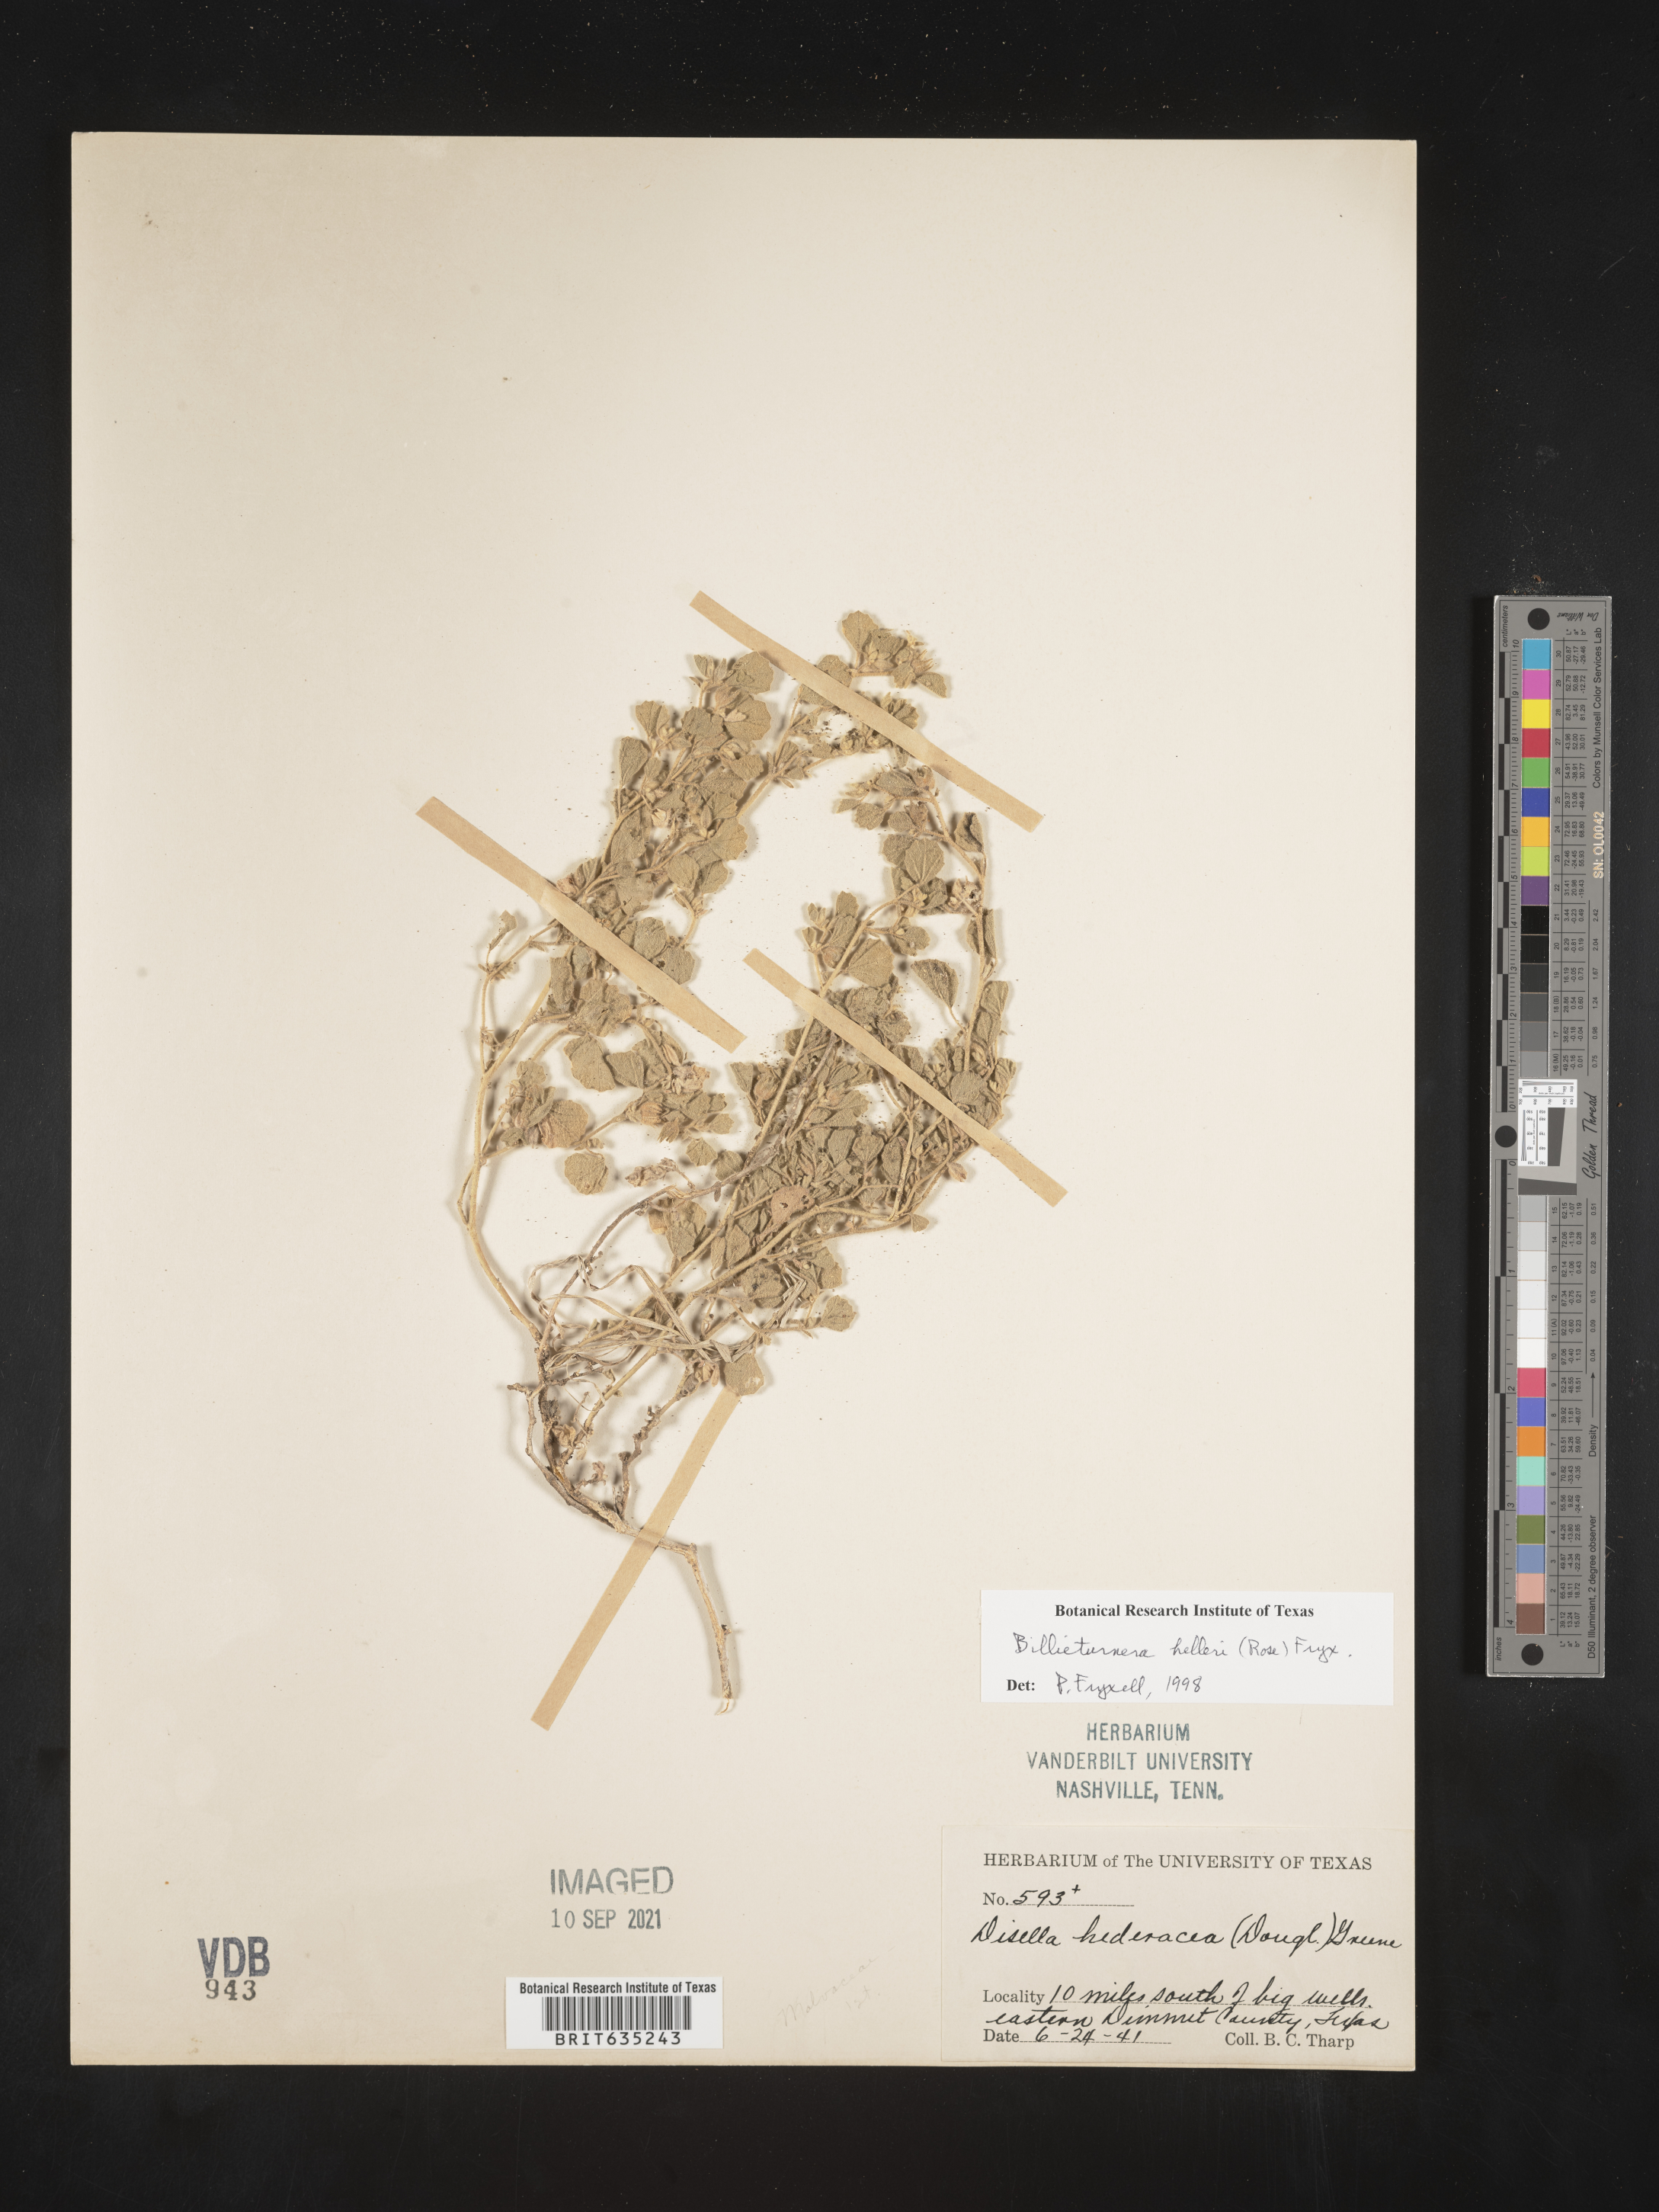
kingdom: Plantae
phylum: Tracheophyta
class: Magnoliopsida
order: Malvales
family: Malvaceae
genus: Billieturnera
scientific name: Billieturnera
